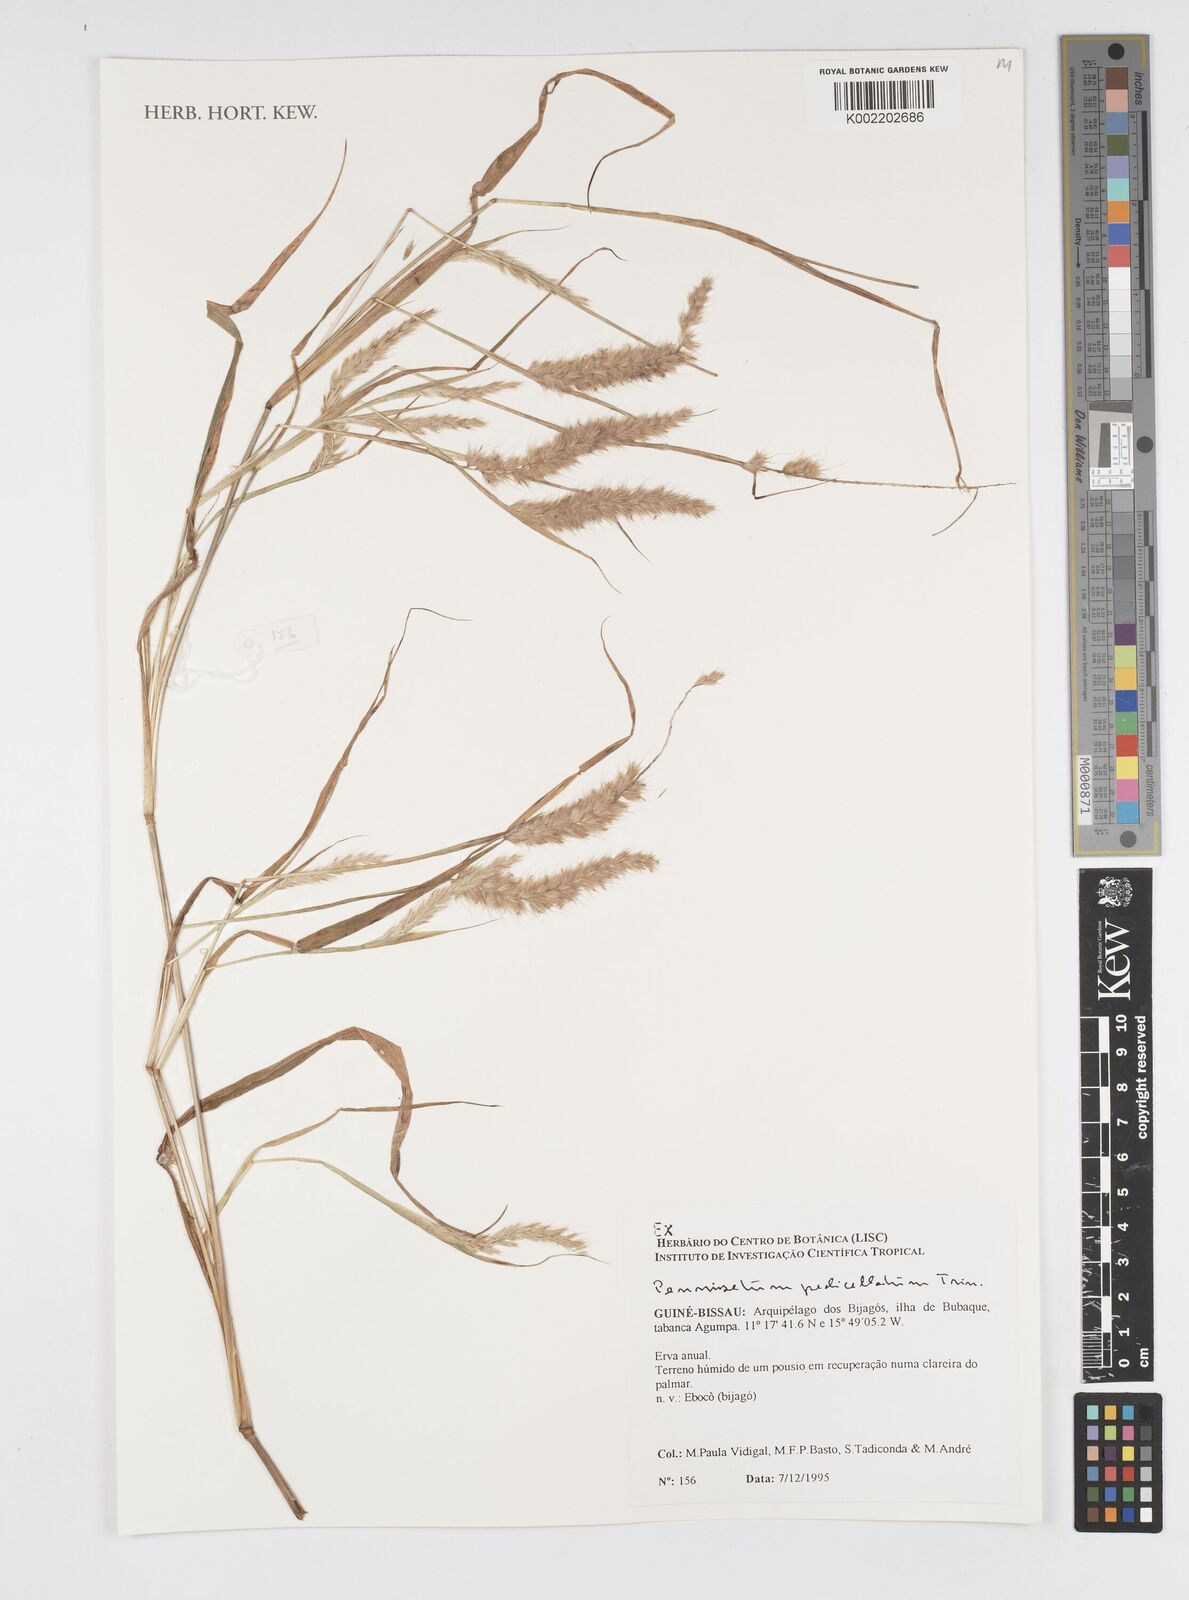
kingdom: Plantae
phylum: Tracheophyta
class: Liliopsida
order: Poales
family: Poaceae
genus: Cenchrus
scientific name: Cenchrus pedicellatus
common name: Hairy fountain grass
